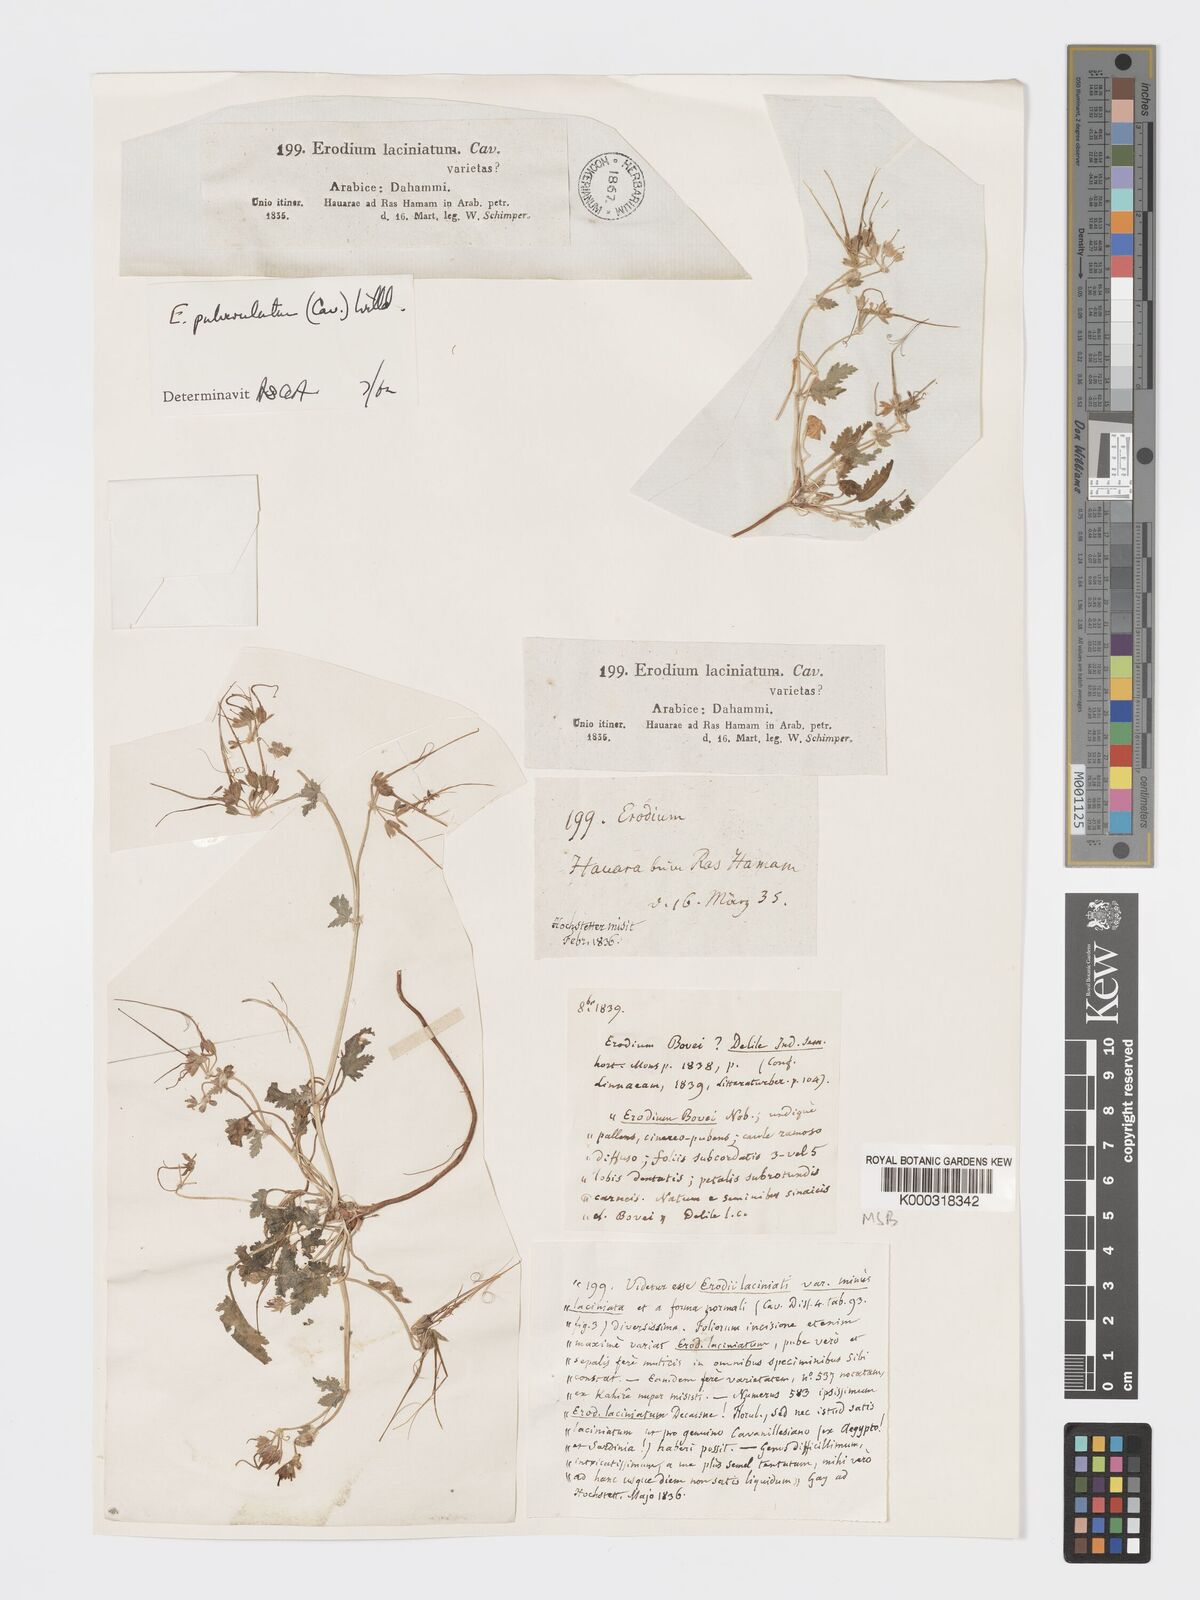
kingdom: Plantae
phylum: Tracheophyta
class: Magnoliopsida
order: Geraniales
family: Geraniaceae
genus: Erodium
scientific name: Erodium laciniatum
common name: Cutleaf stork's bill
